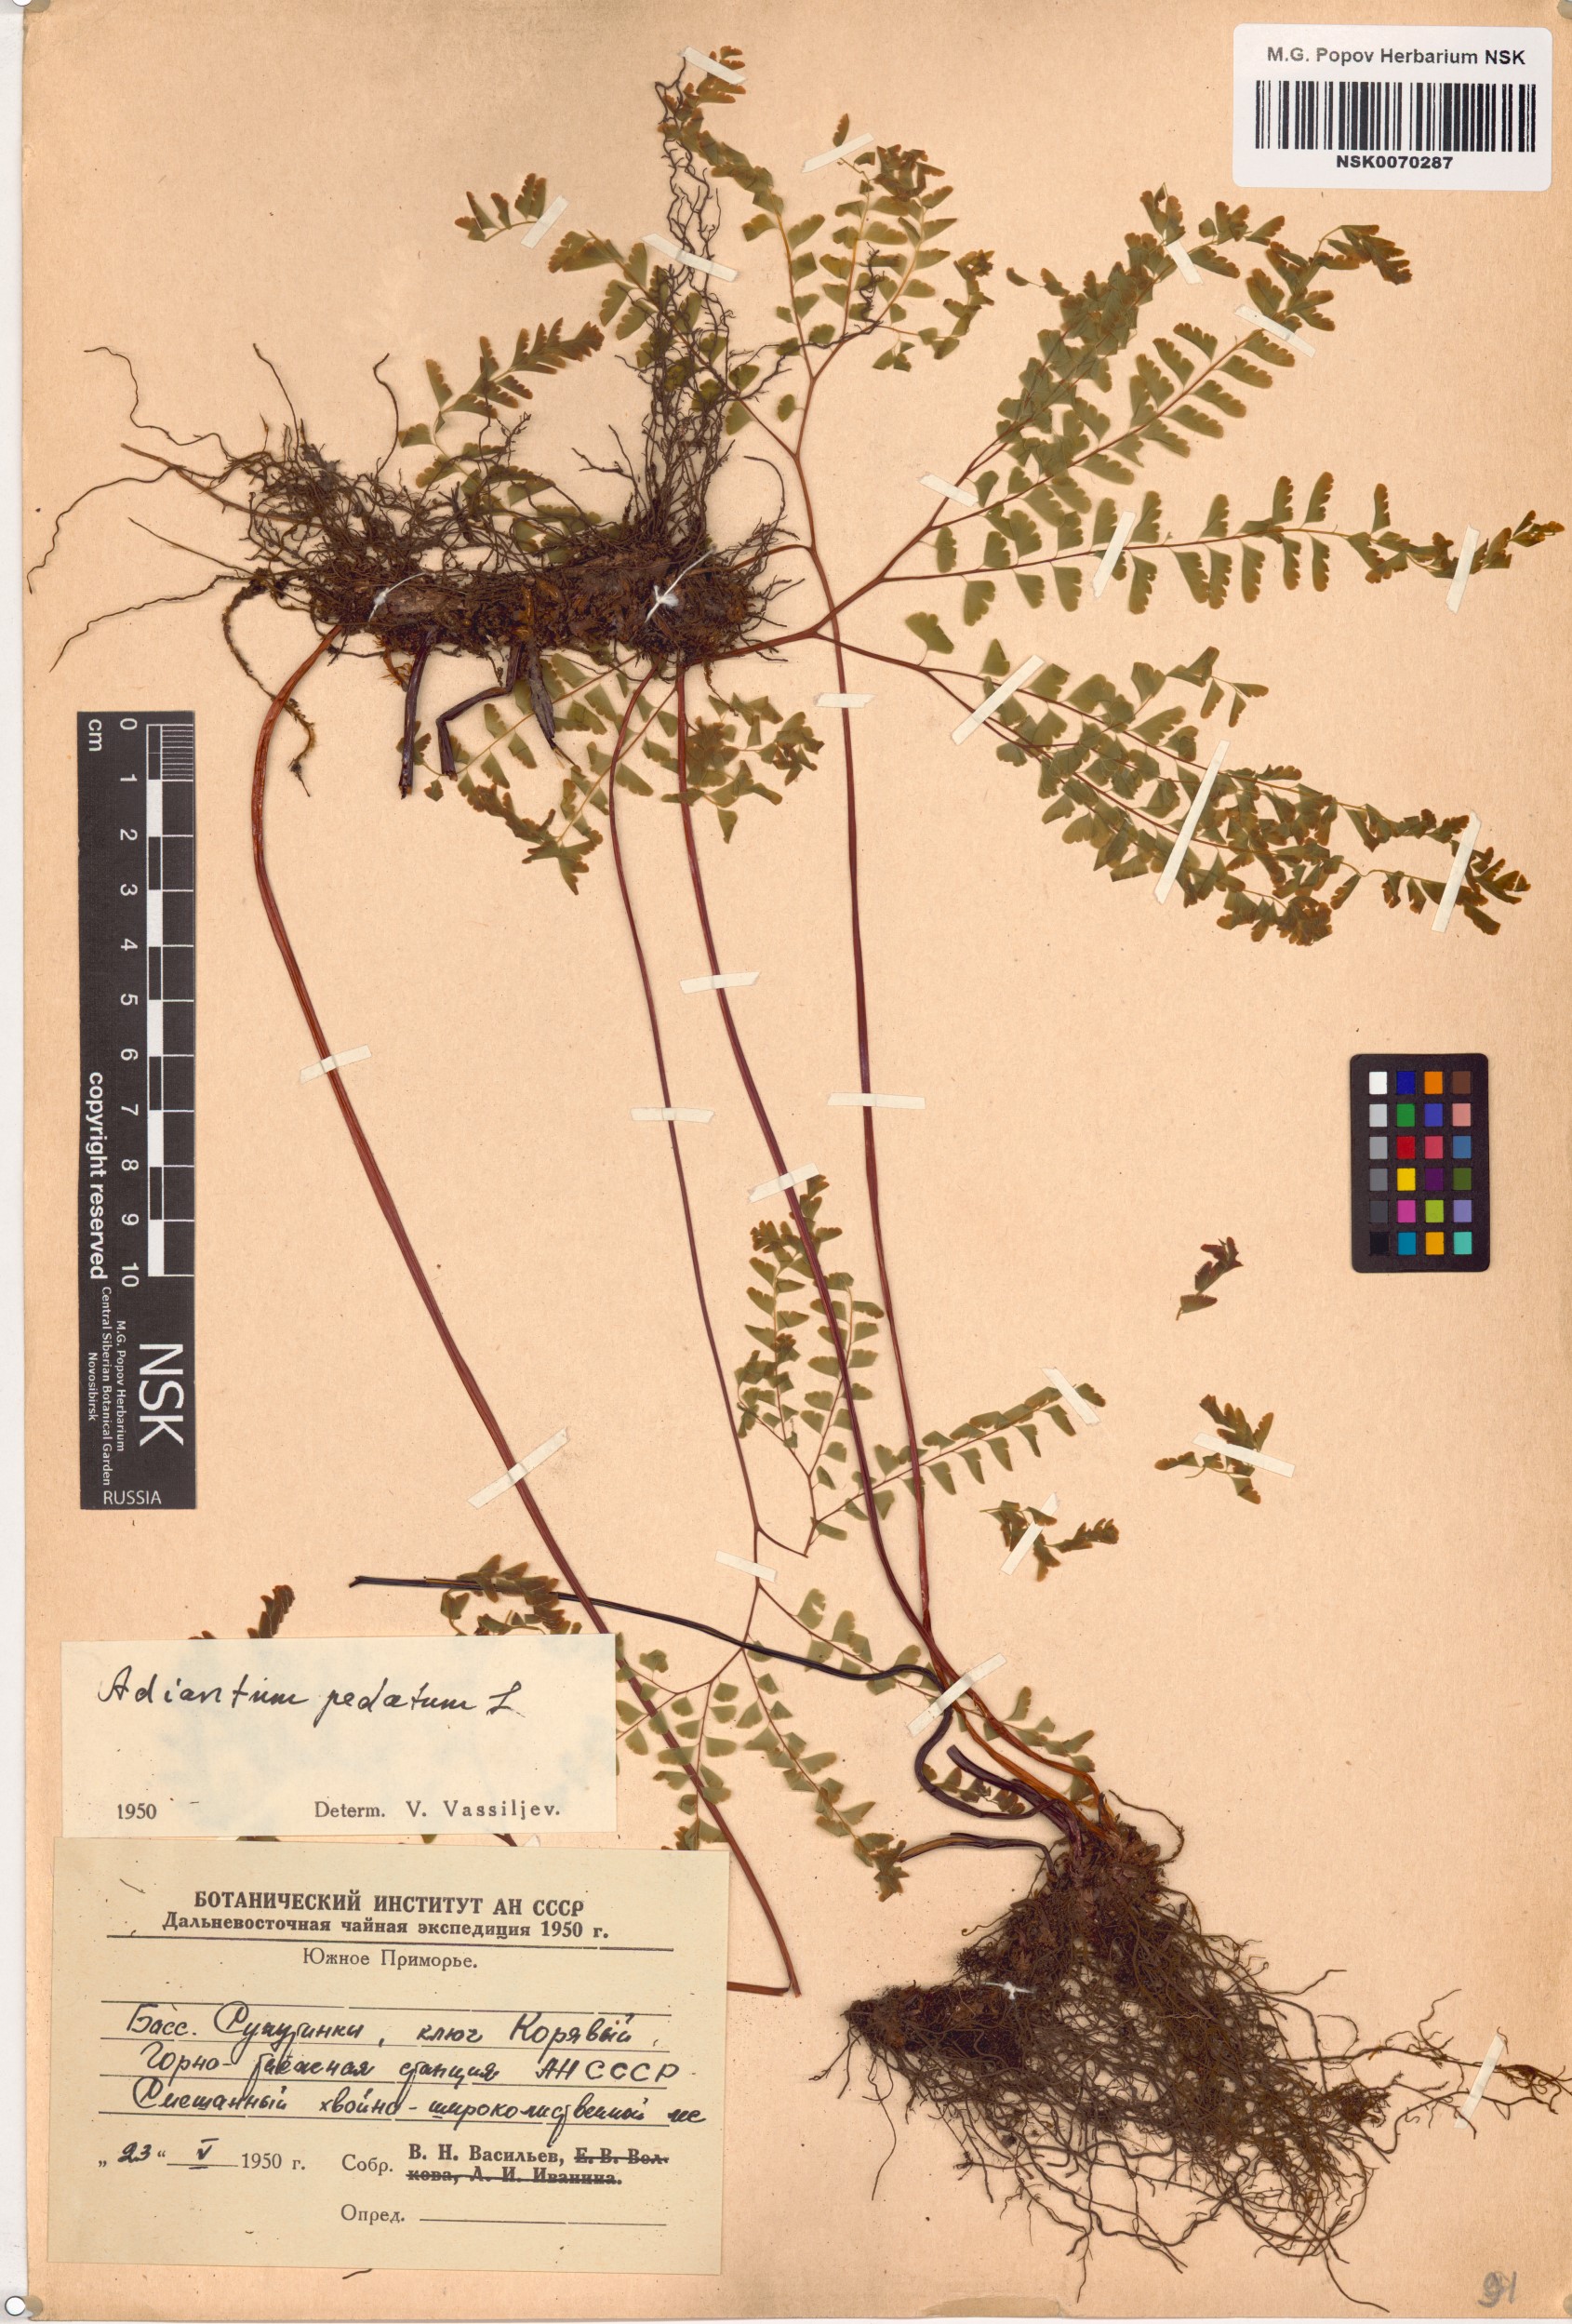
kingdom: Plantae
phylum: Tracheophyta
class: Polypodiopsida
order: Polypodiales
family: Pteridaceae
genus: Adiantum
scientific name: Adiantum pedatum
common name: Five-finger fern
